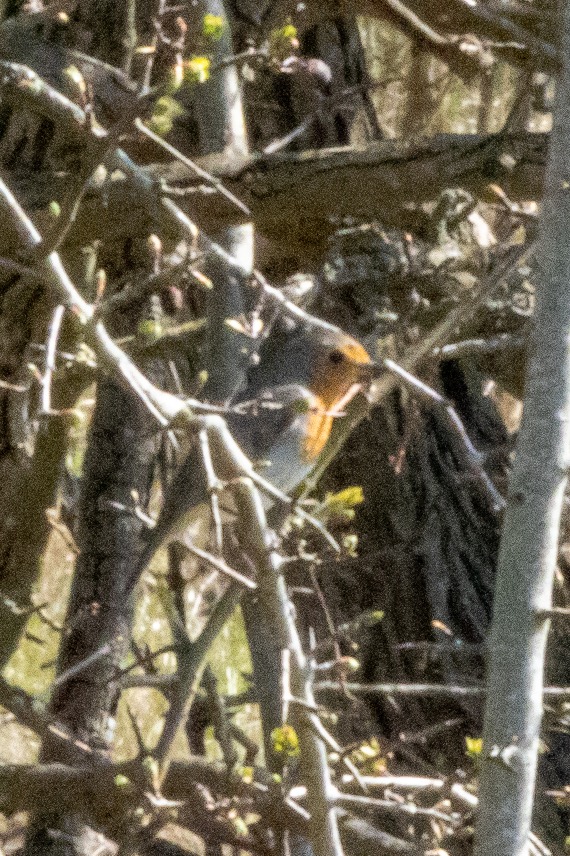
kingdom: Animalia
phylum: Chordata
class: Aves
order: Passeriformes
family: Muscicapidae
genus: Erithacus
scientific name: Erithacus rubecula
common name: Rødhals/rødkælk
